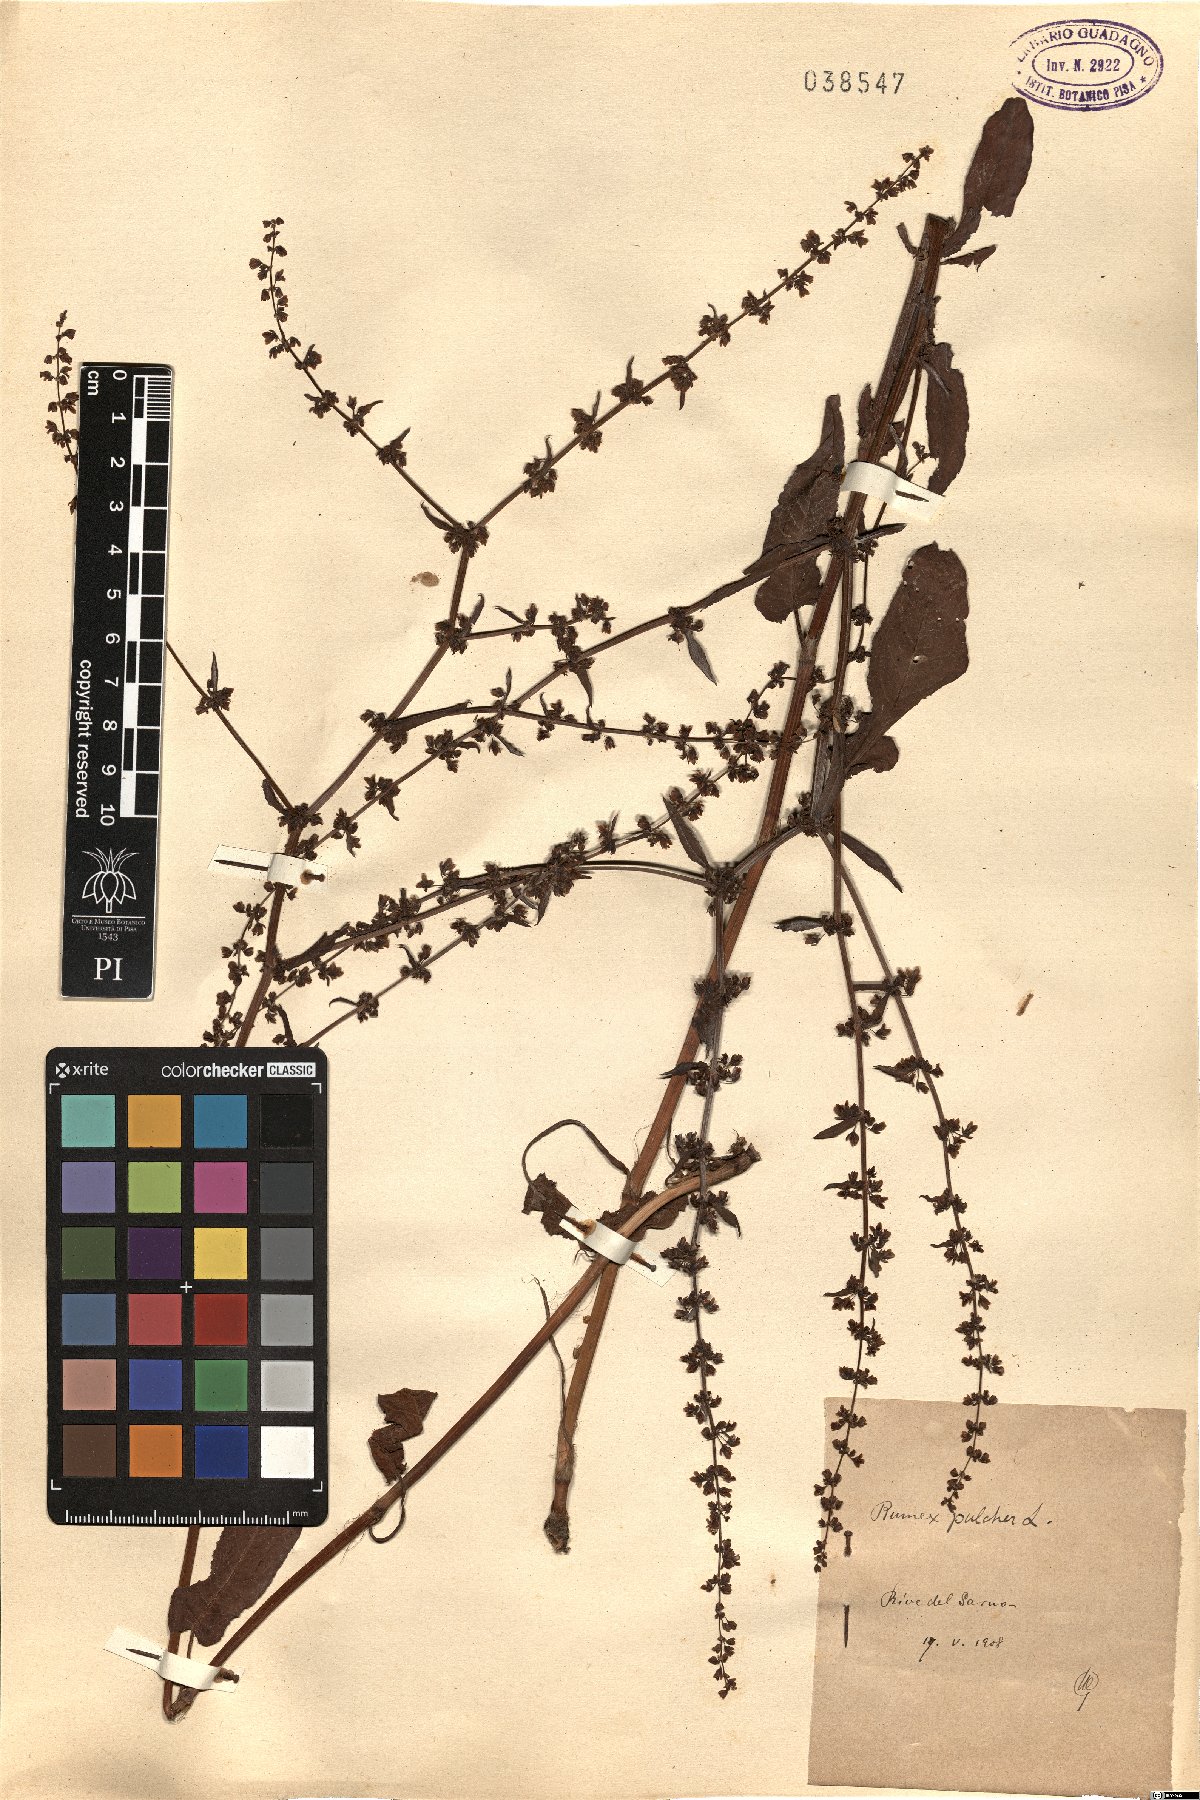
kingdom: Plantae
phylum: Tracheophyta
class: Magnoliopsida
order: Caryophyllales
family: Polygonaceae
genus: Rumex
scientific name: Rumex pulcher
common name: Fiddle dock
